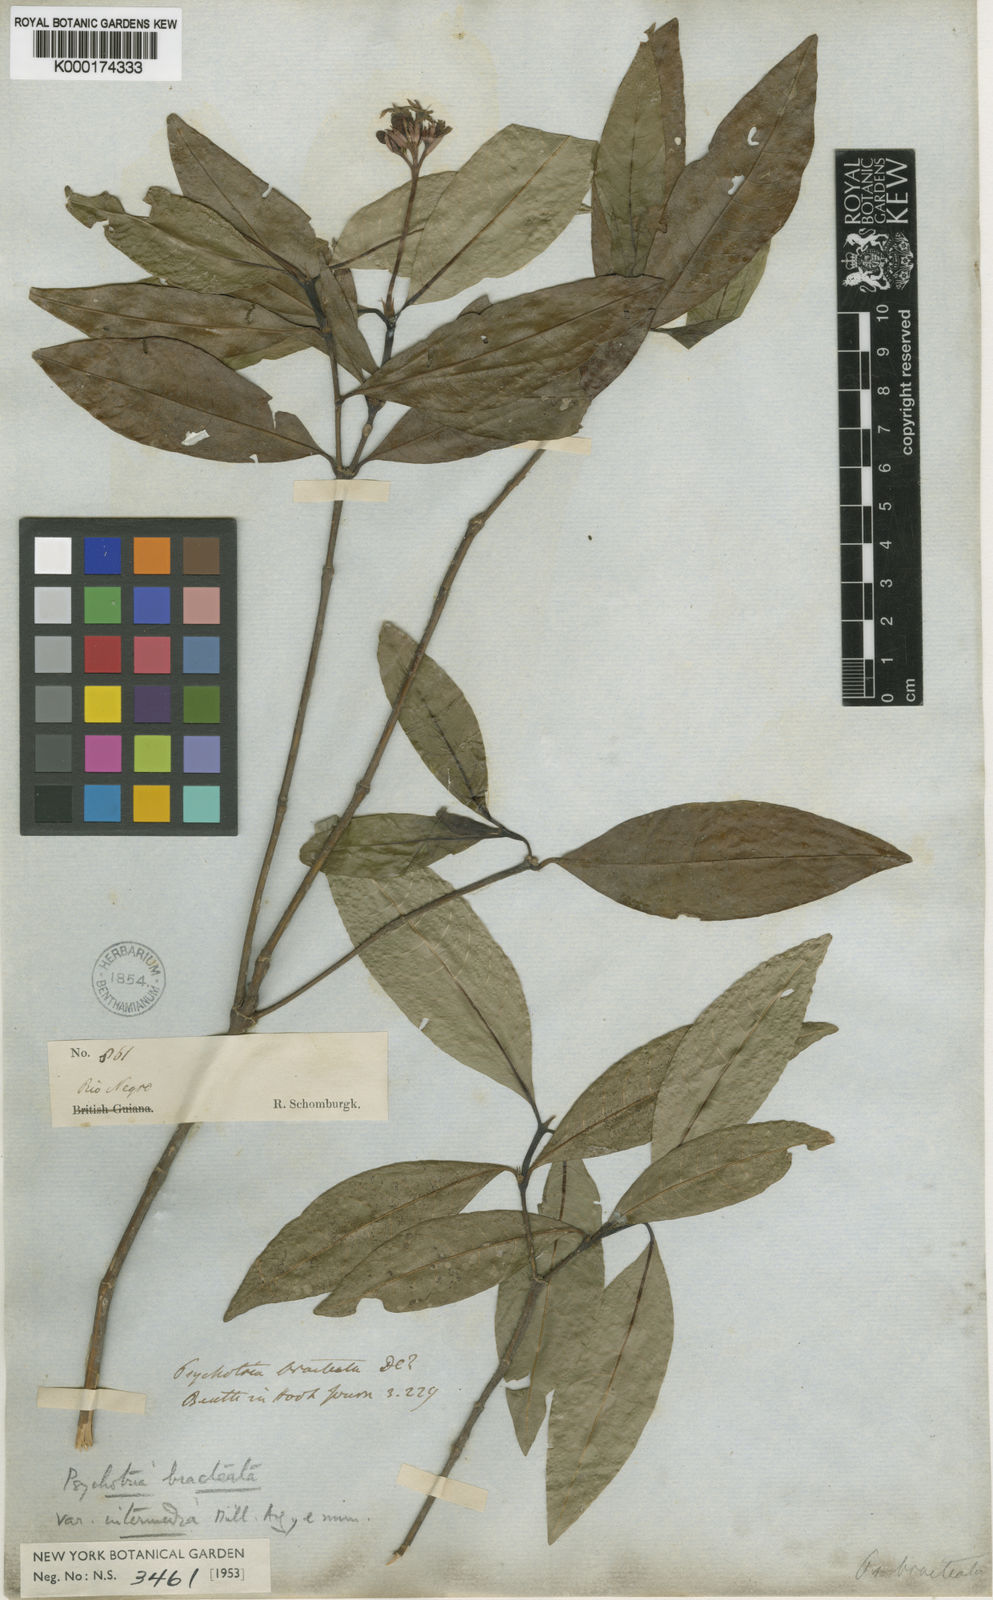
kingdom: Plantae
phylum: Tracheophyta
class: Magnoliopsida
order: Gentianales
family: Rubiaceae
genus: Palicourea
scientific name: Palicourea maguireorum
